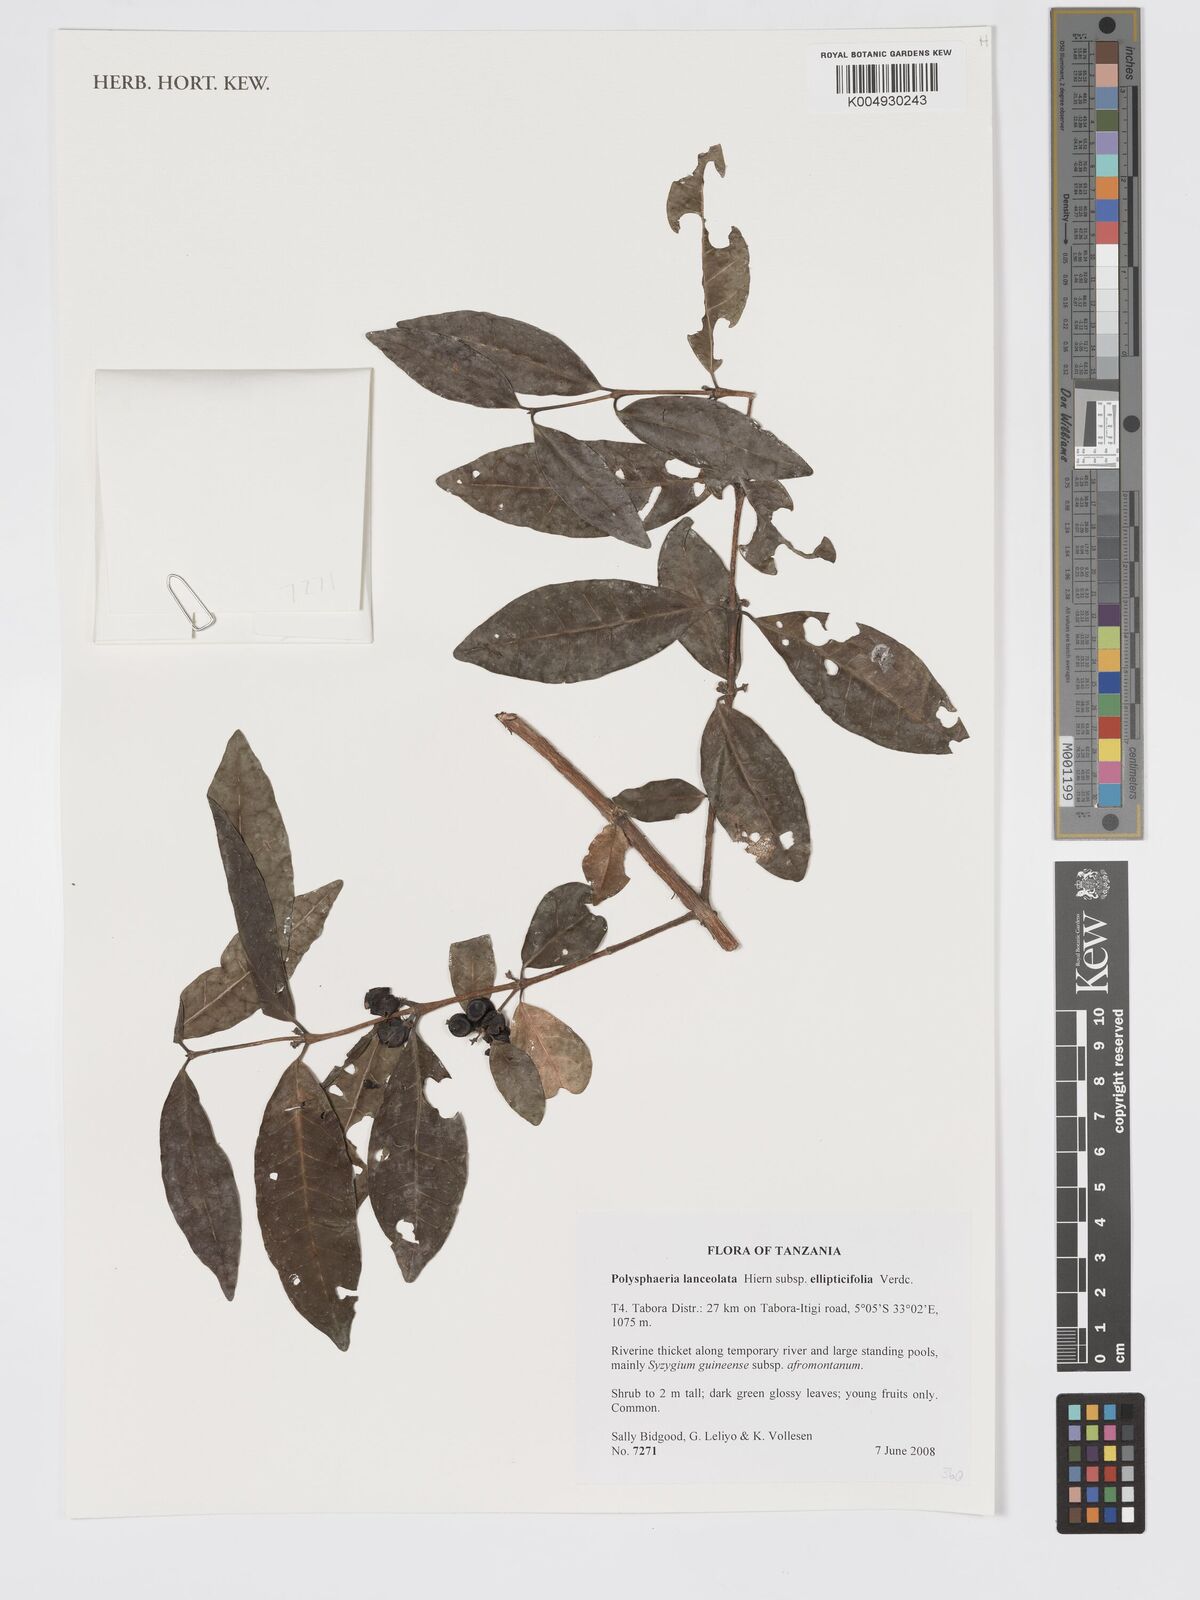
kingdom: Plantae
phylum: Tracheophyta
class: Magnoliopsida
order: Gentianales
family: Rubiaceae
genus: Polysphaeria
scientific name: Polysphaeria lanceolata
